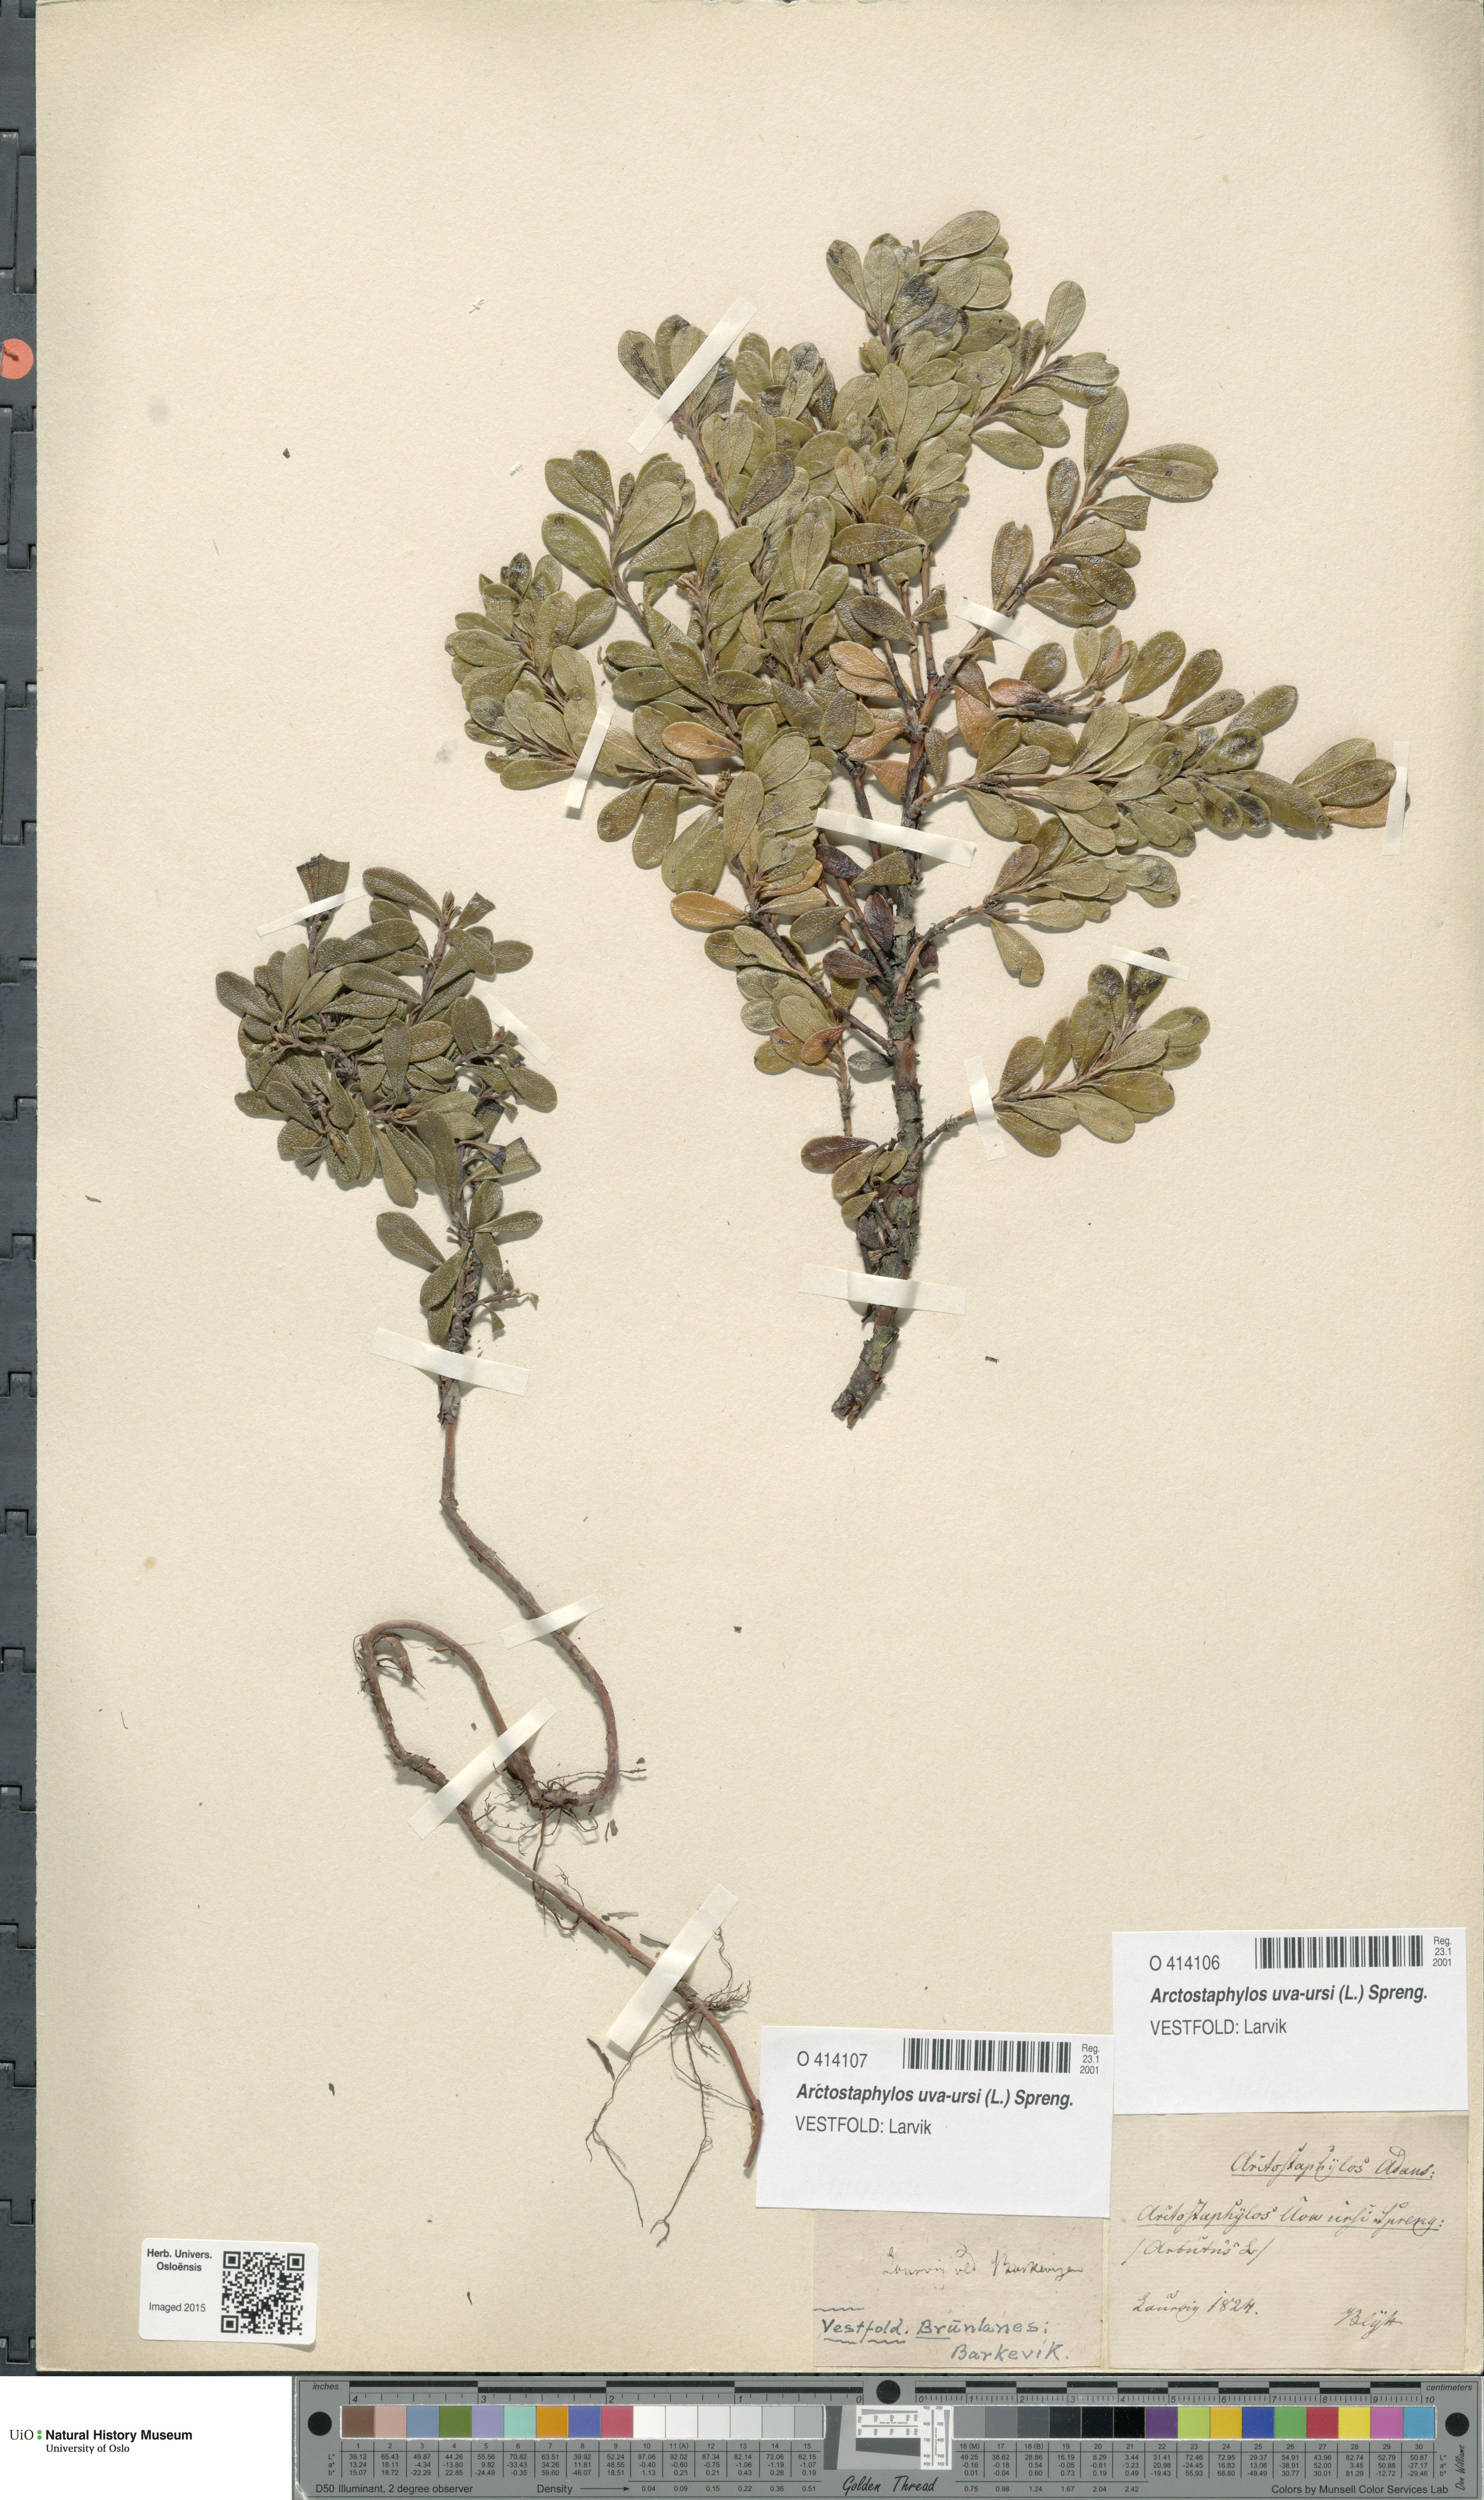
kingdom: Plantae
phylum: Tracheophyta
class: Magnoliopsida
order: Ericales
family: Ericaceae
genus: Arctostaphylos
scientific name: Arctostaphylos uva-ursi
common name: Bearberry
